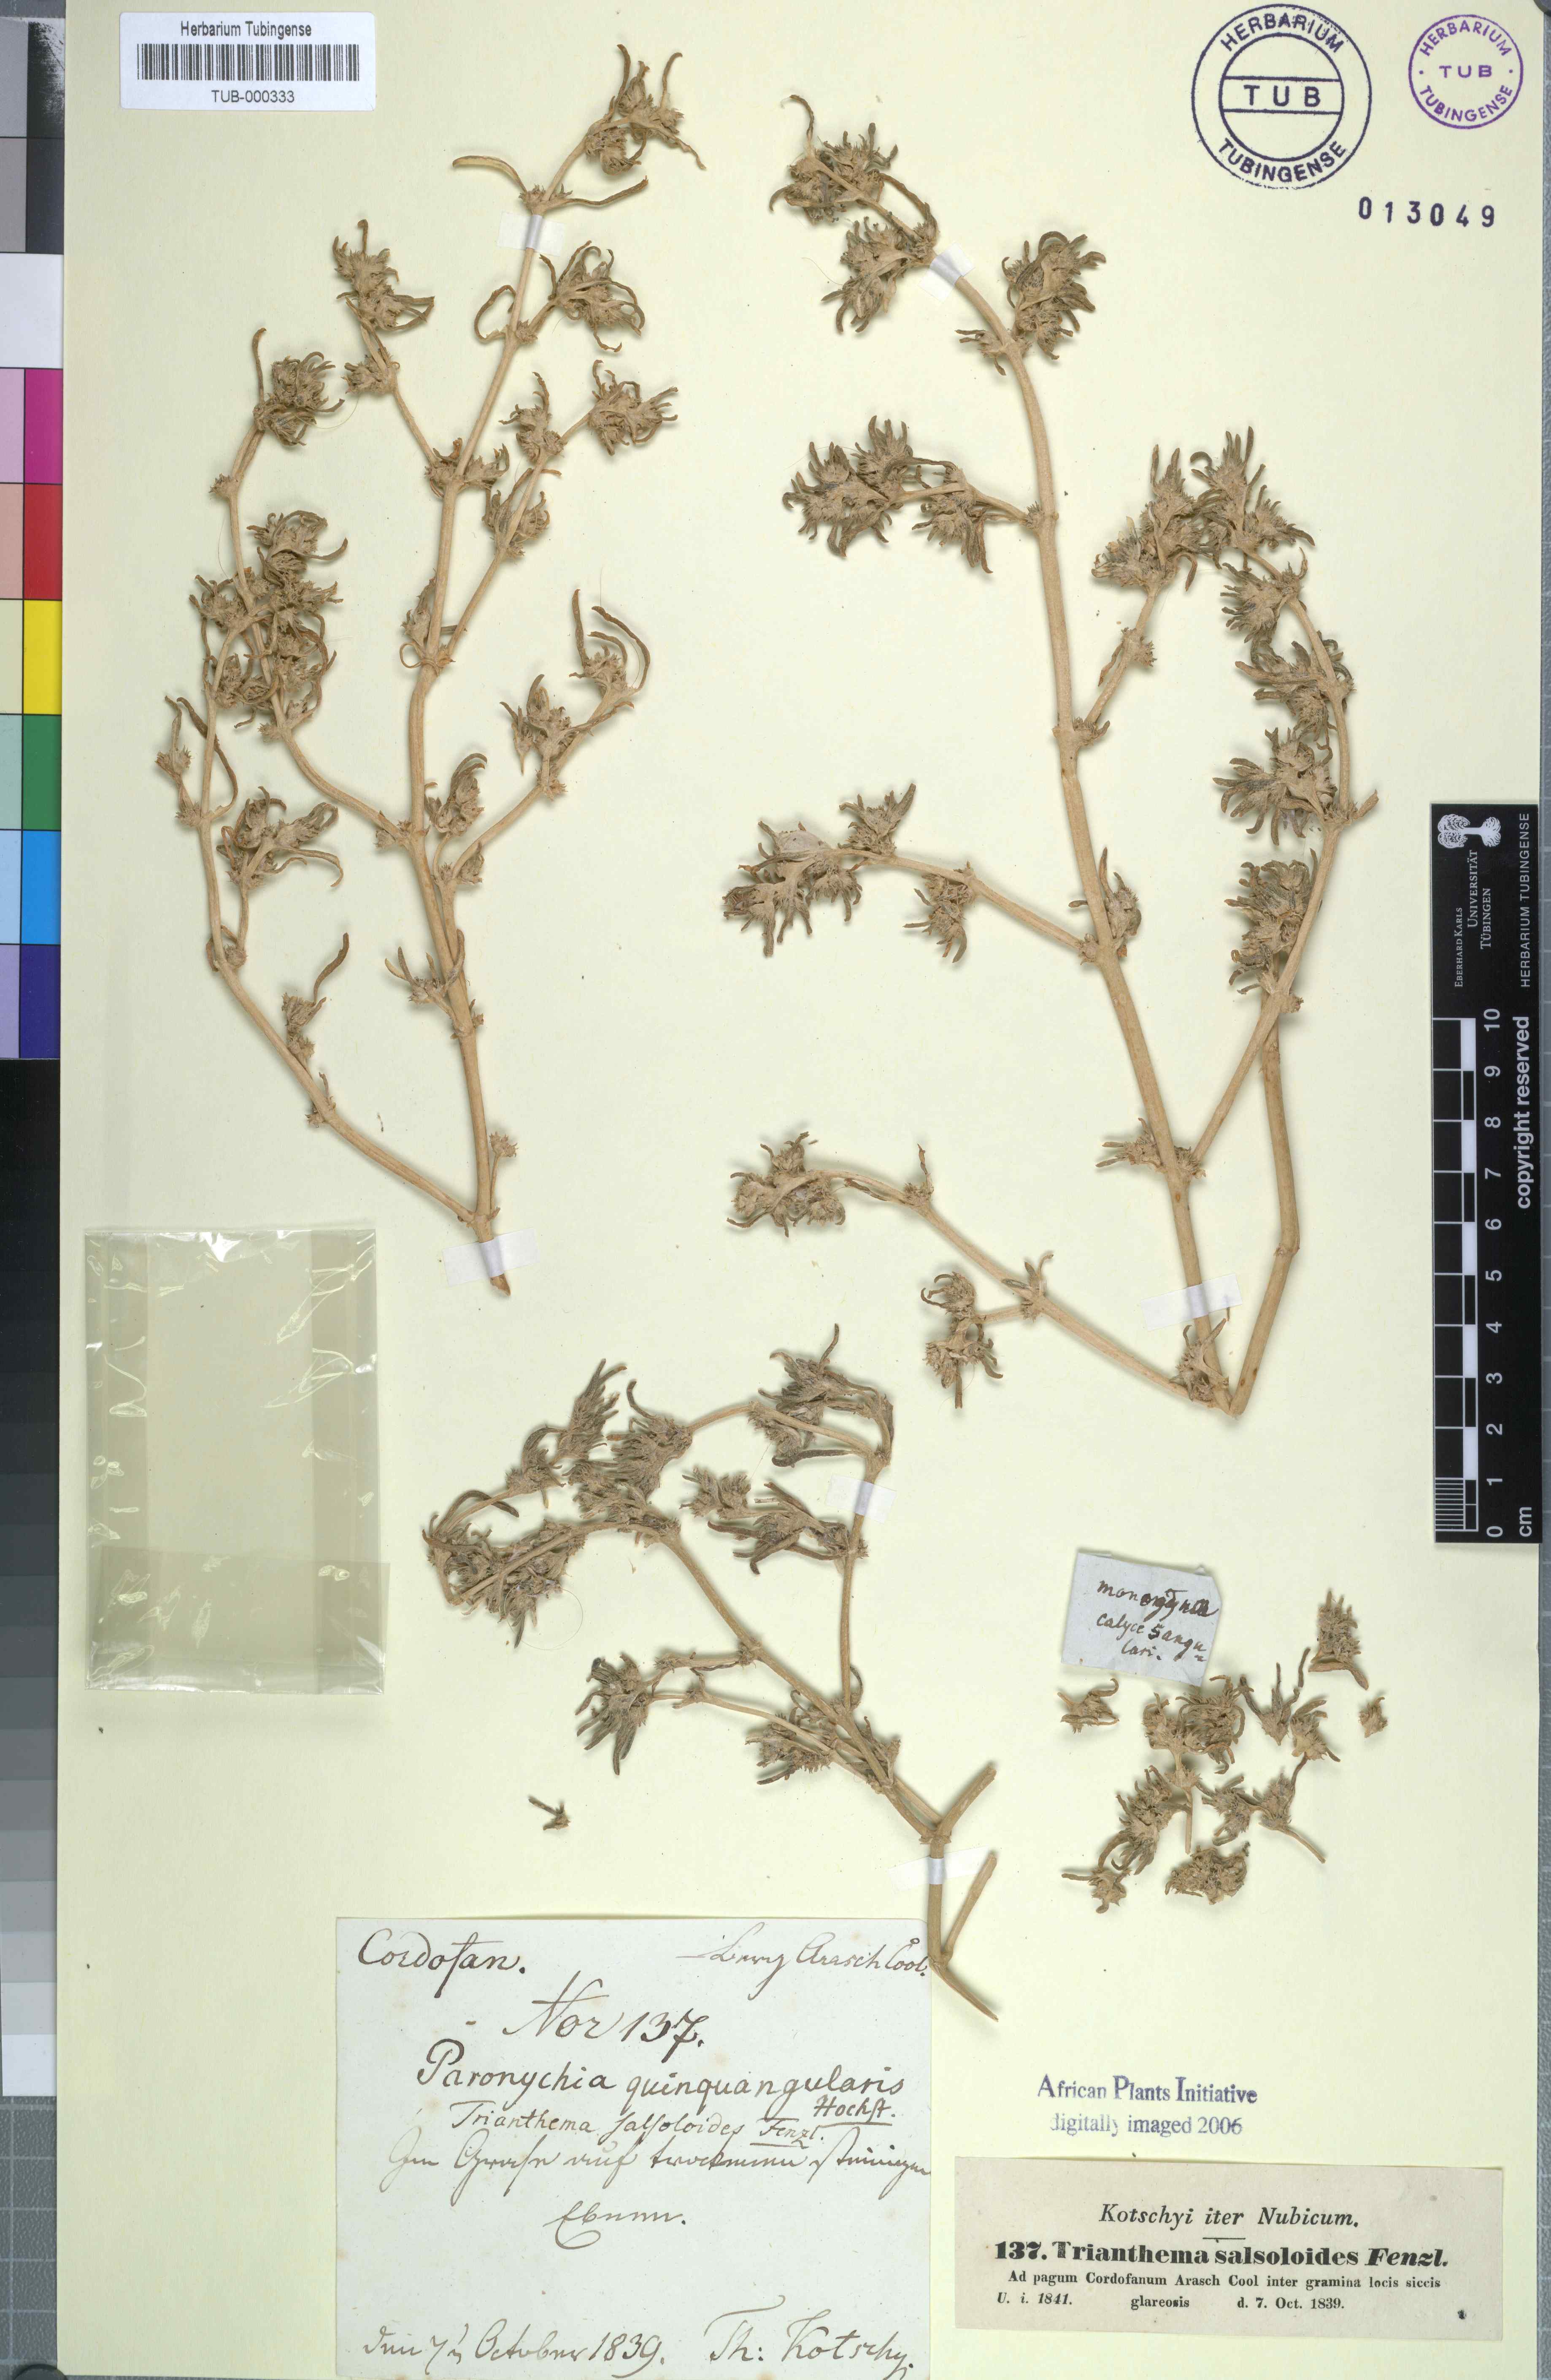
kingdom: Plantae
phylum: Tracheophyta
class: Magnoliopsida
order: Caryophyllales
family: Aizoaceae
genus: Trianthema
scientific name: Trianthema salsoloides
